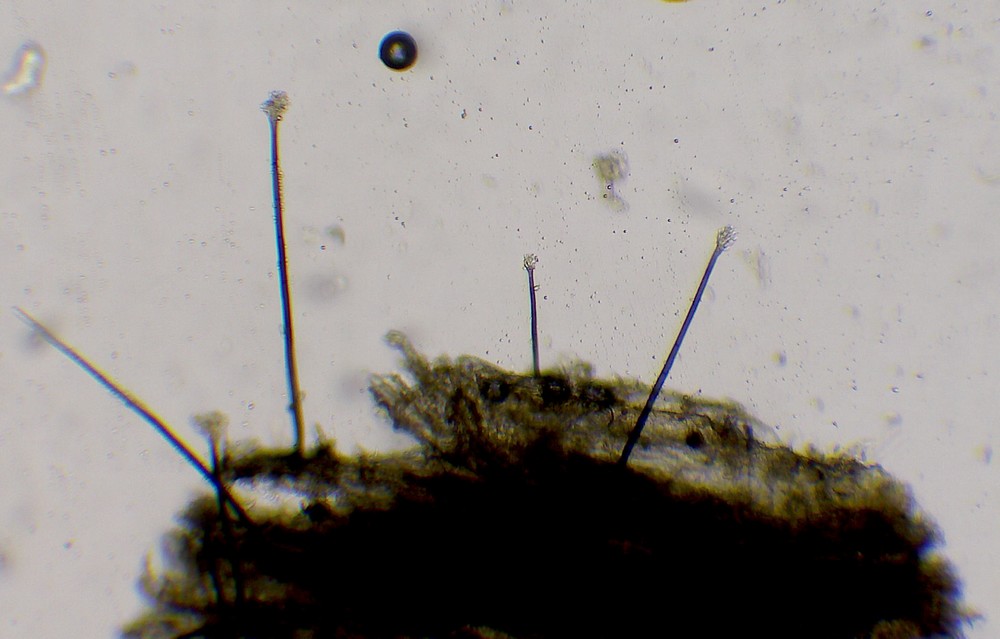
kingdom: Fungi
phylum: Ascomycota
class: Leotiomycetes
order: Helotiales
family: Hyaloscyphaceae
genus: Dematioscypha
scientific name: Dematioscypha dematiicola
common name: grålig skimmelskive
